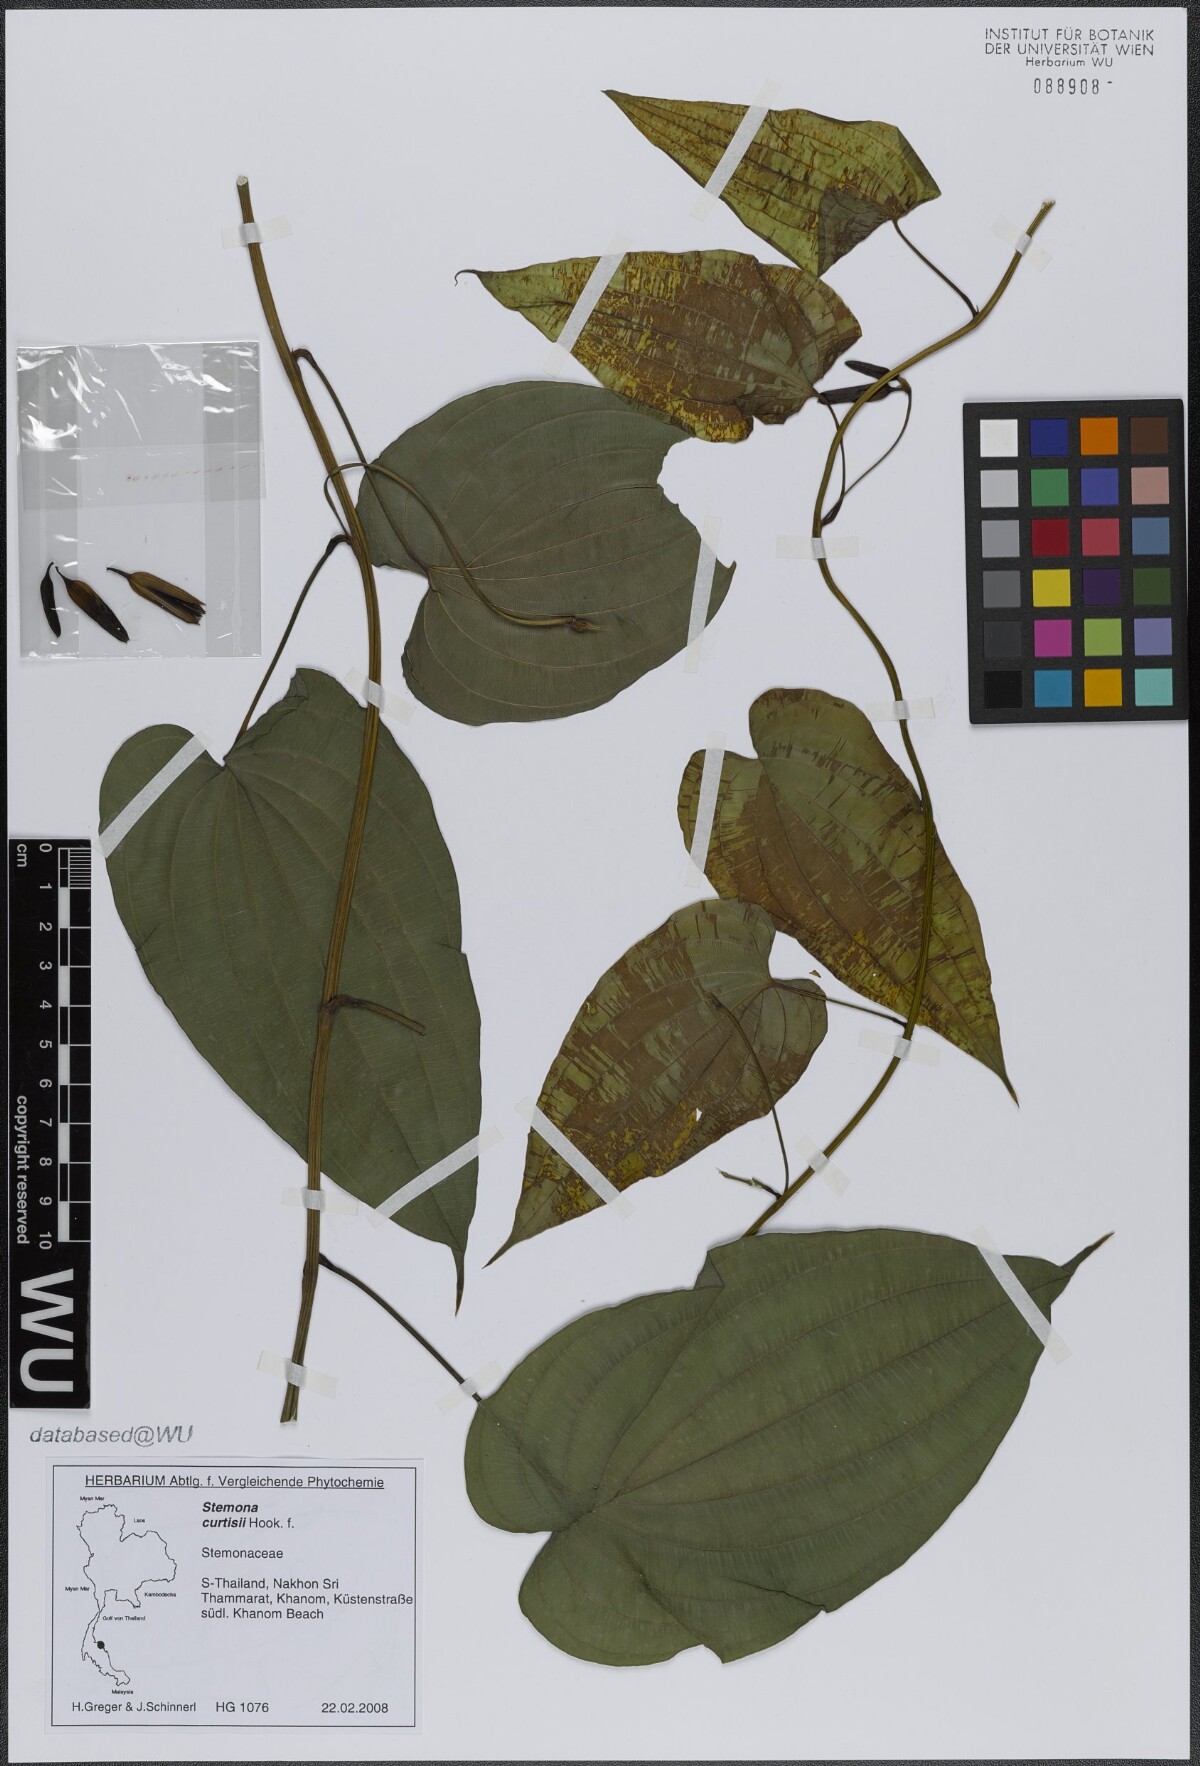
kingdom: Plantae
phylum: Tracheophyta
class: Liliopsida
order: Pandanales
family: Stemonaceae
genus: Stemona
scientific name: Stemona curtisii
